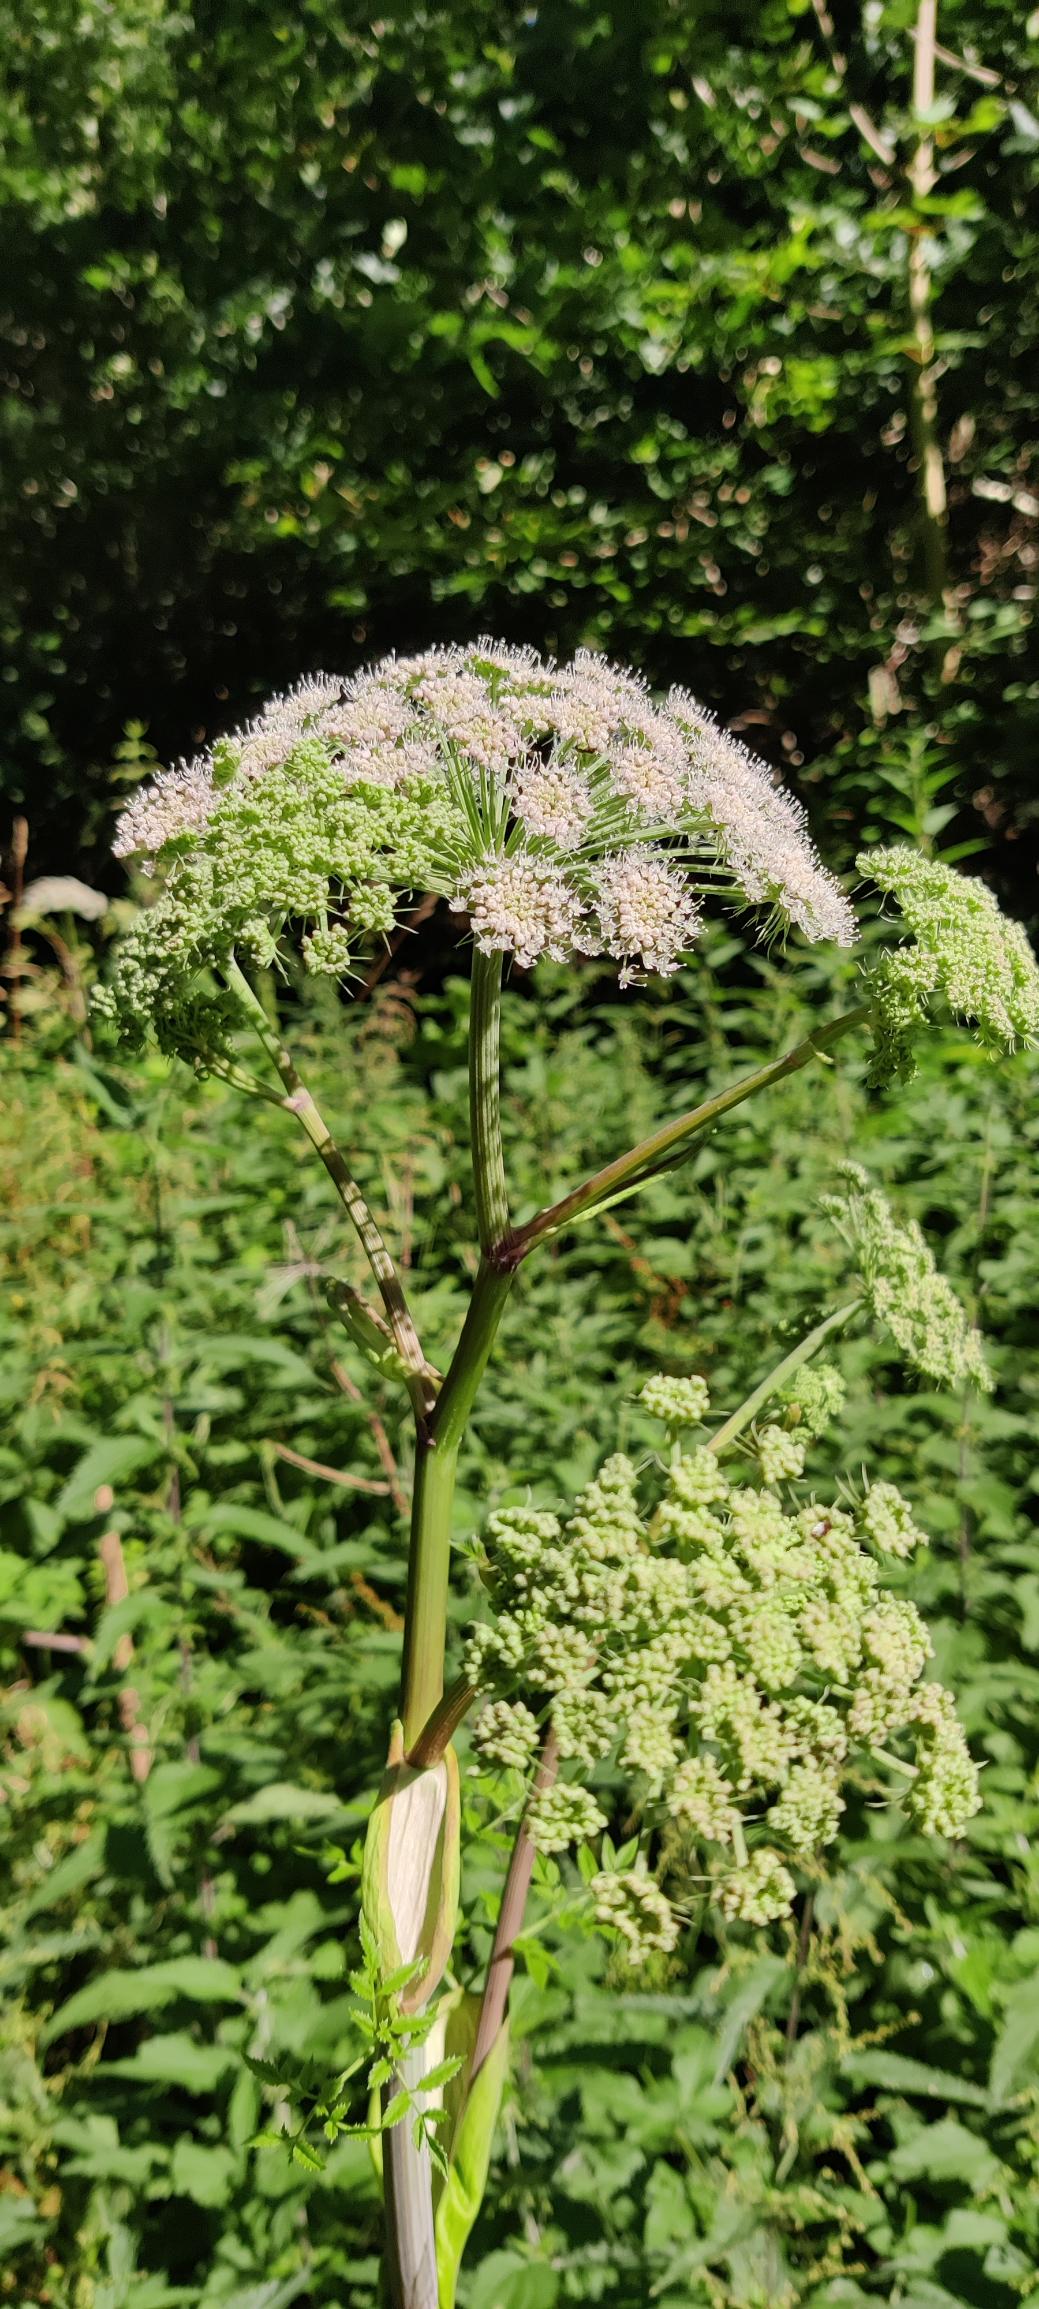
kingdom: Plantae
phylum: Tracheophyta
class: Magnoliopsida
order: Apiales
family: Apiaceae
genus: Angelica
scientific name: Angelica sylvestris
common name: Angelik
